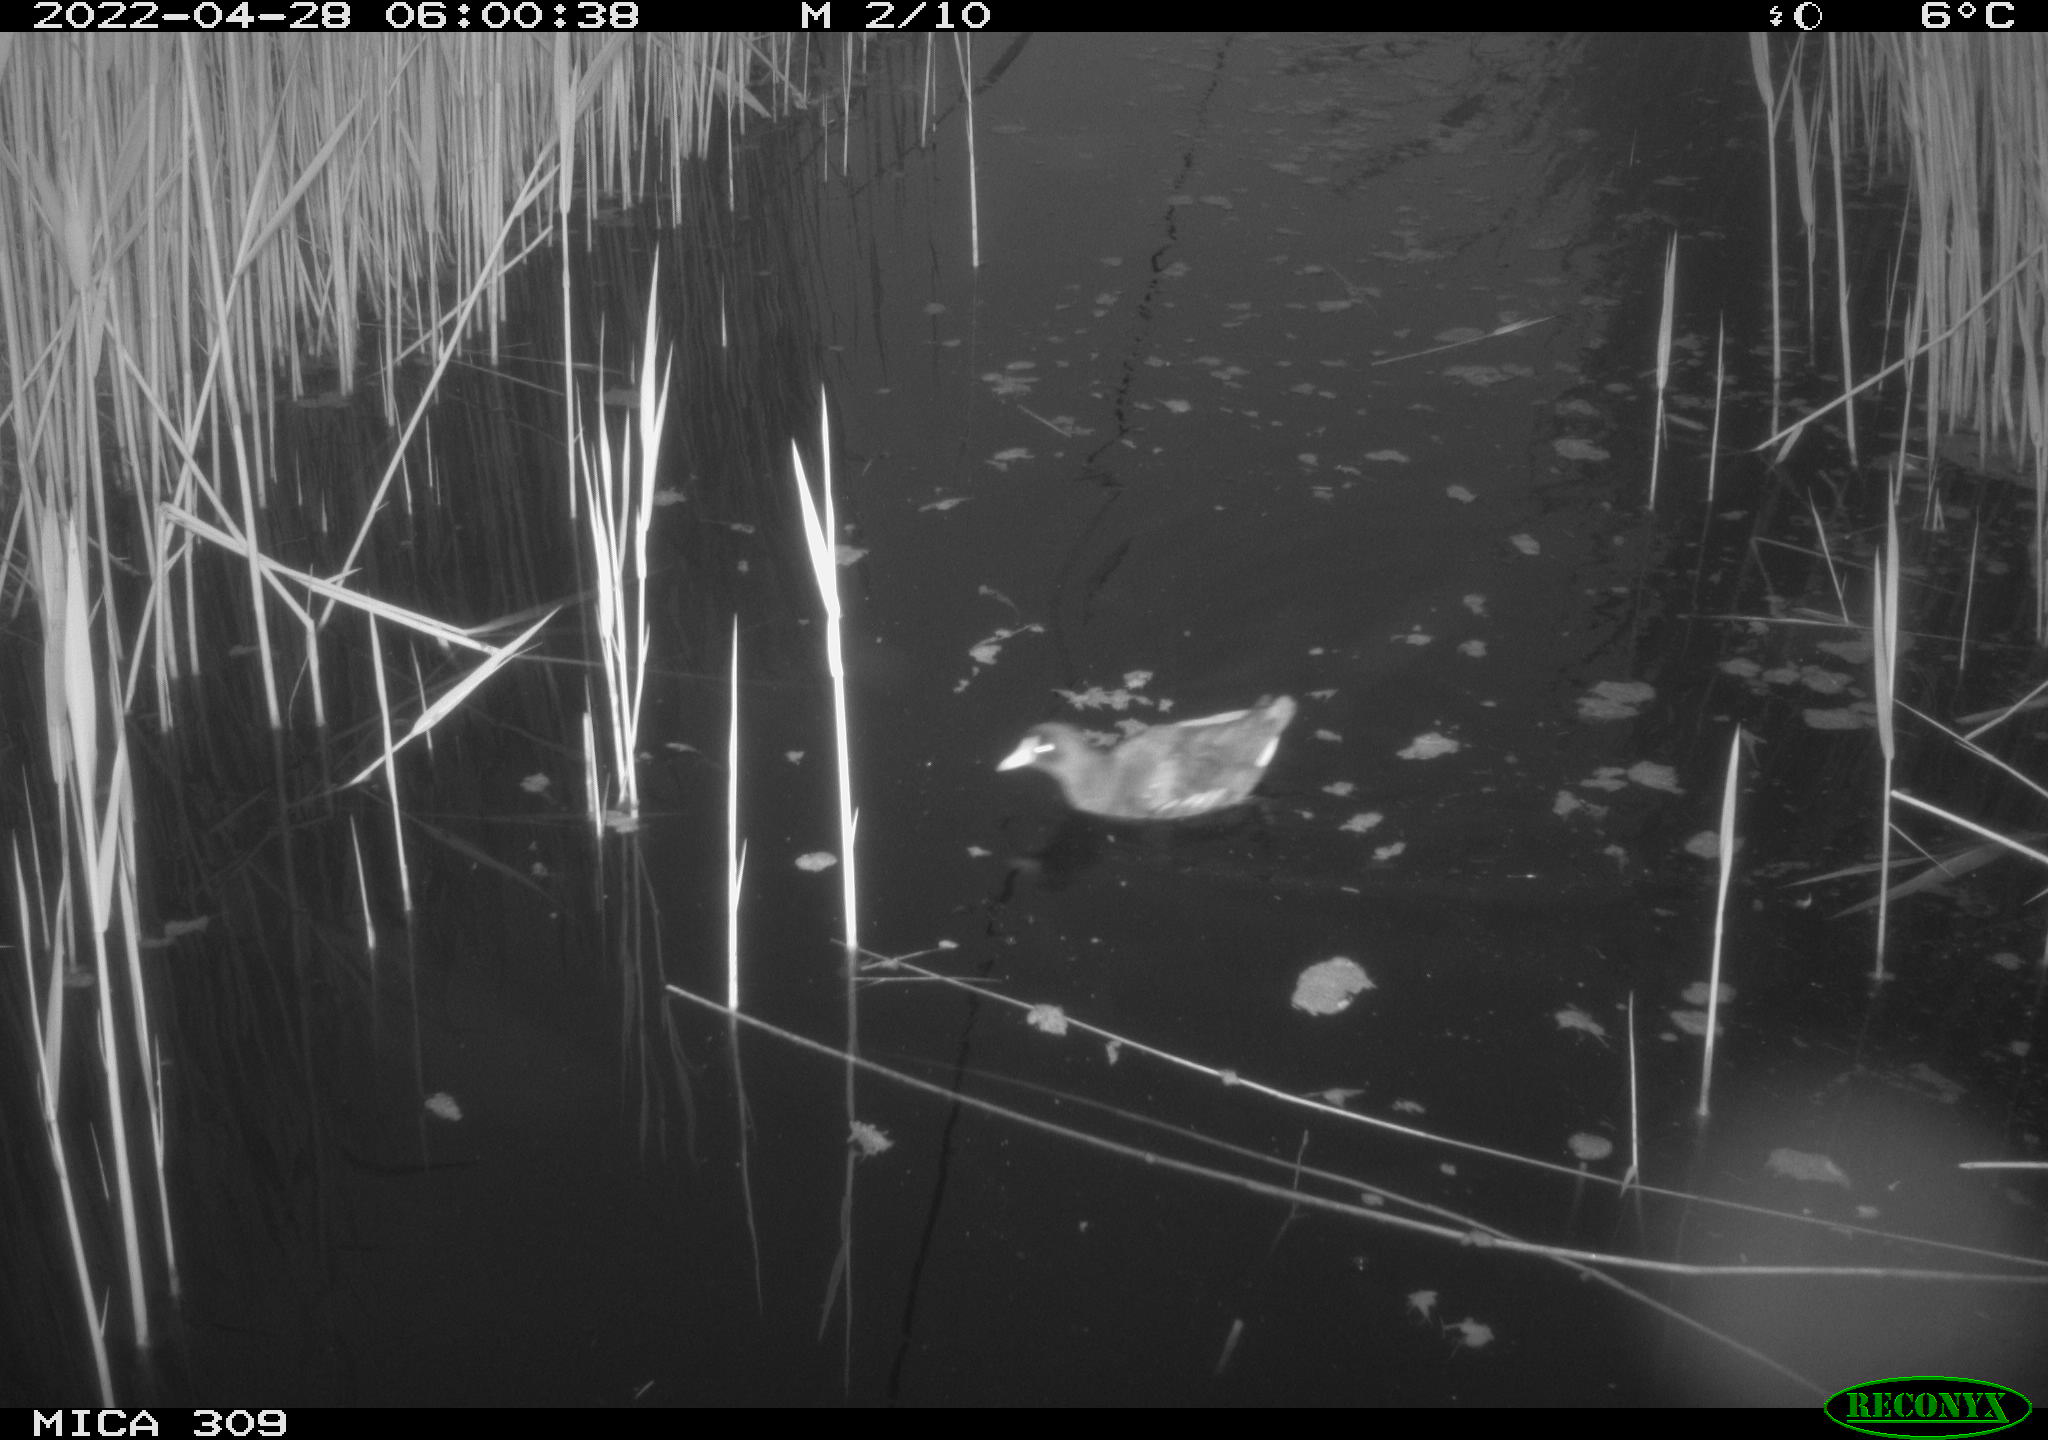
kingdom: Animalia
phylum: Chordata
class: Aves
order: Gruiformes
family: Rallidae
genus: Gallinula
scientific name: Gallinula chloropus
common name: Common moorhen
